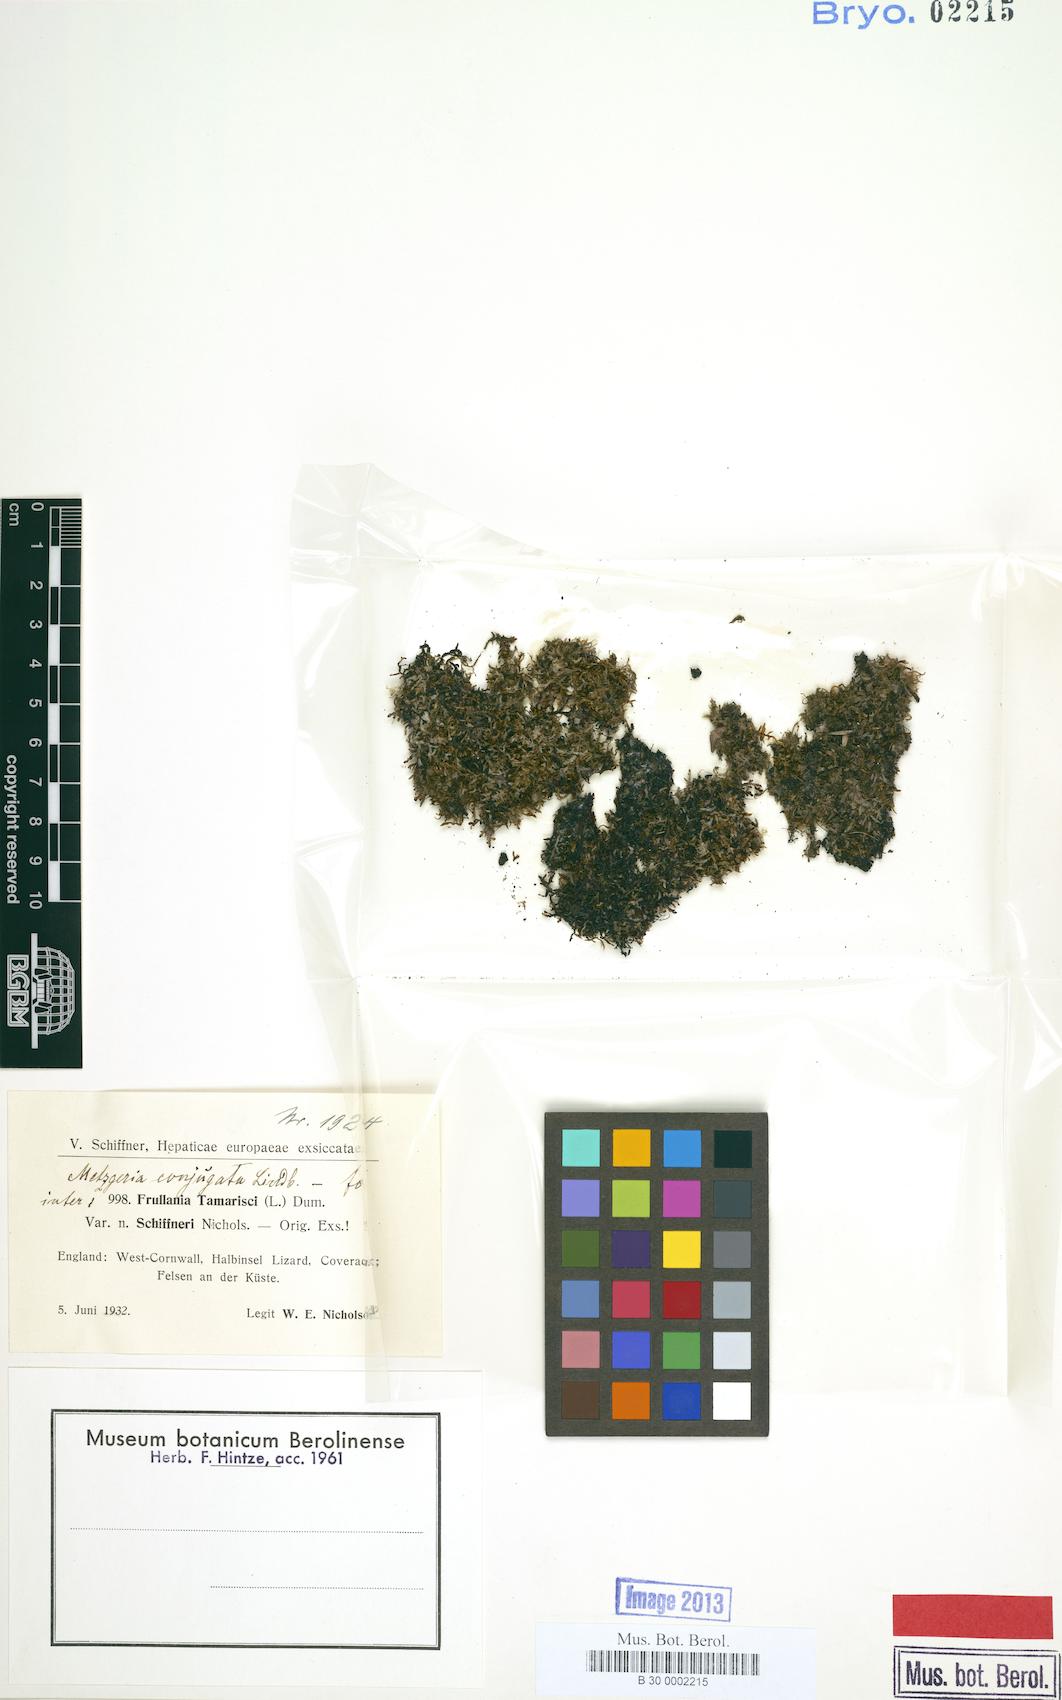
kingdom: Plantae
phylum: Marchantiophyta
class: Jungermanniopsida
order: Metzgeriales
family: Metzgeriaceae
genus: Metzgeria
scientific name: Metzgeria conjugata
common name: Rock veilwort
